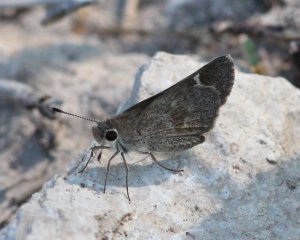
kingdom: Animalia
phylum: Arthropoda
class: Insecta
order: Lepidoptera
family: Hesperiidae
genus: Lerodea
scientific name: Lerodea arabus
